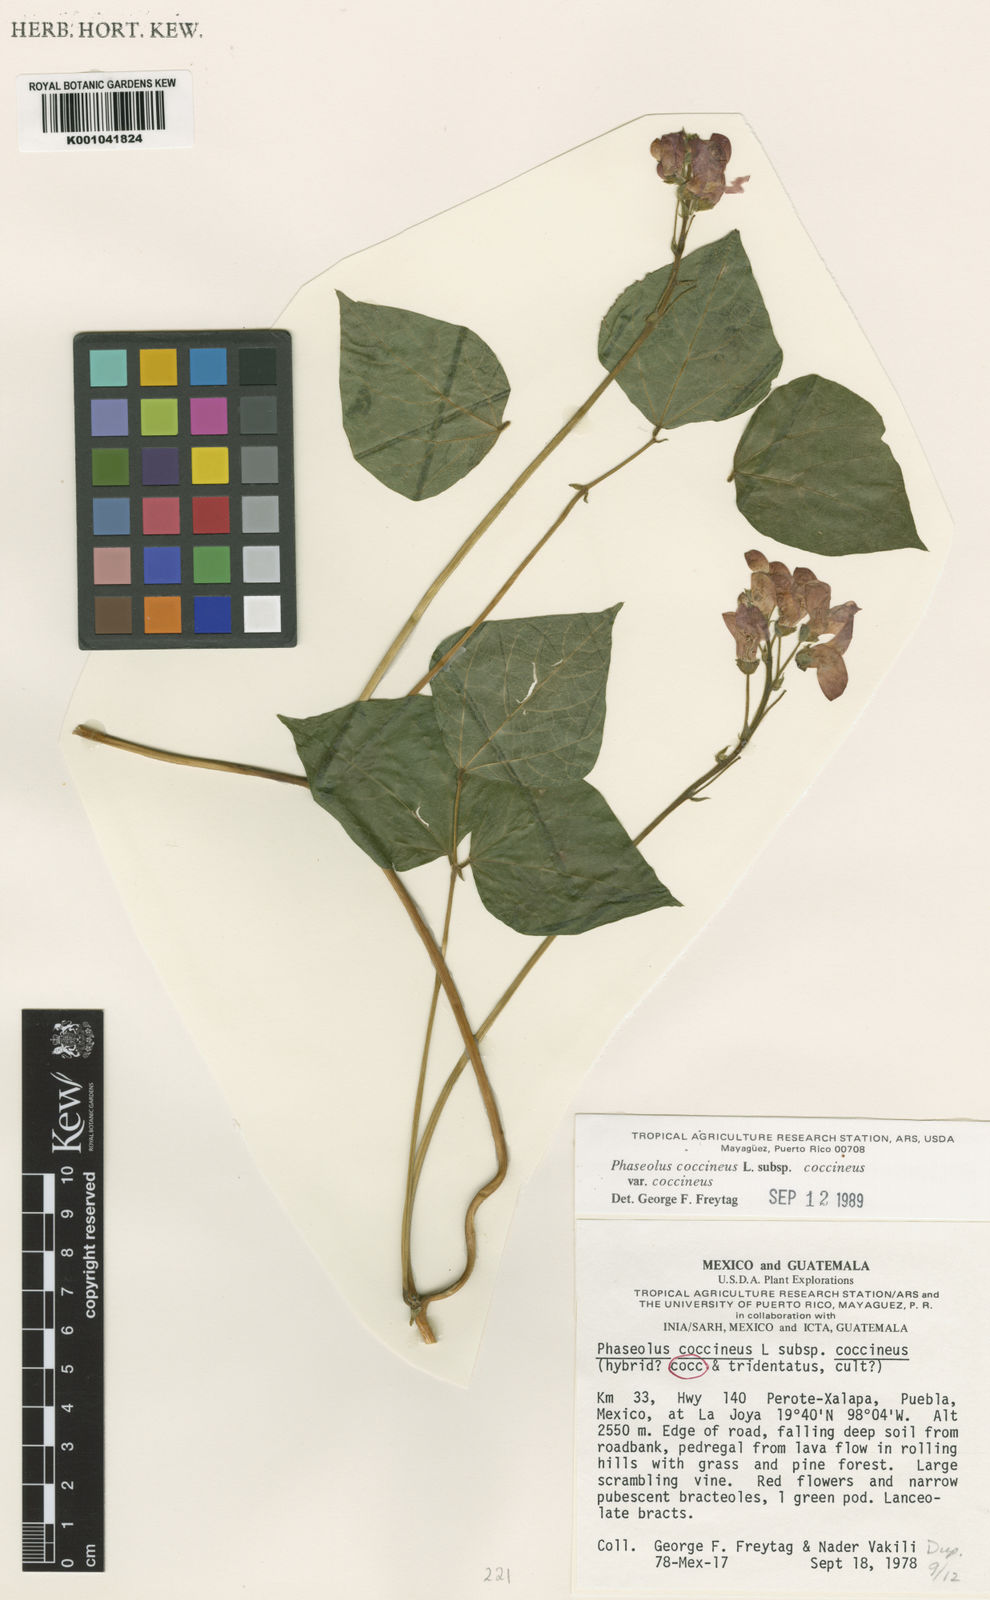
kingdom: Plantae
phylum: Tracheophyta
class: Magnoliopsida
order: Fabales
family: Fabaceae
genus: Phaseolus
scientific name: Phaseolus
